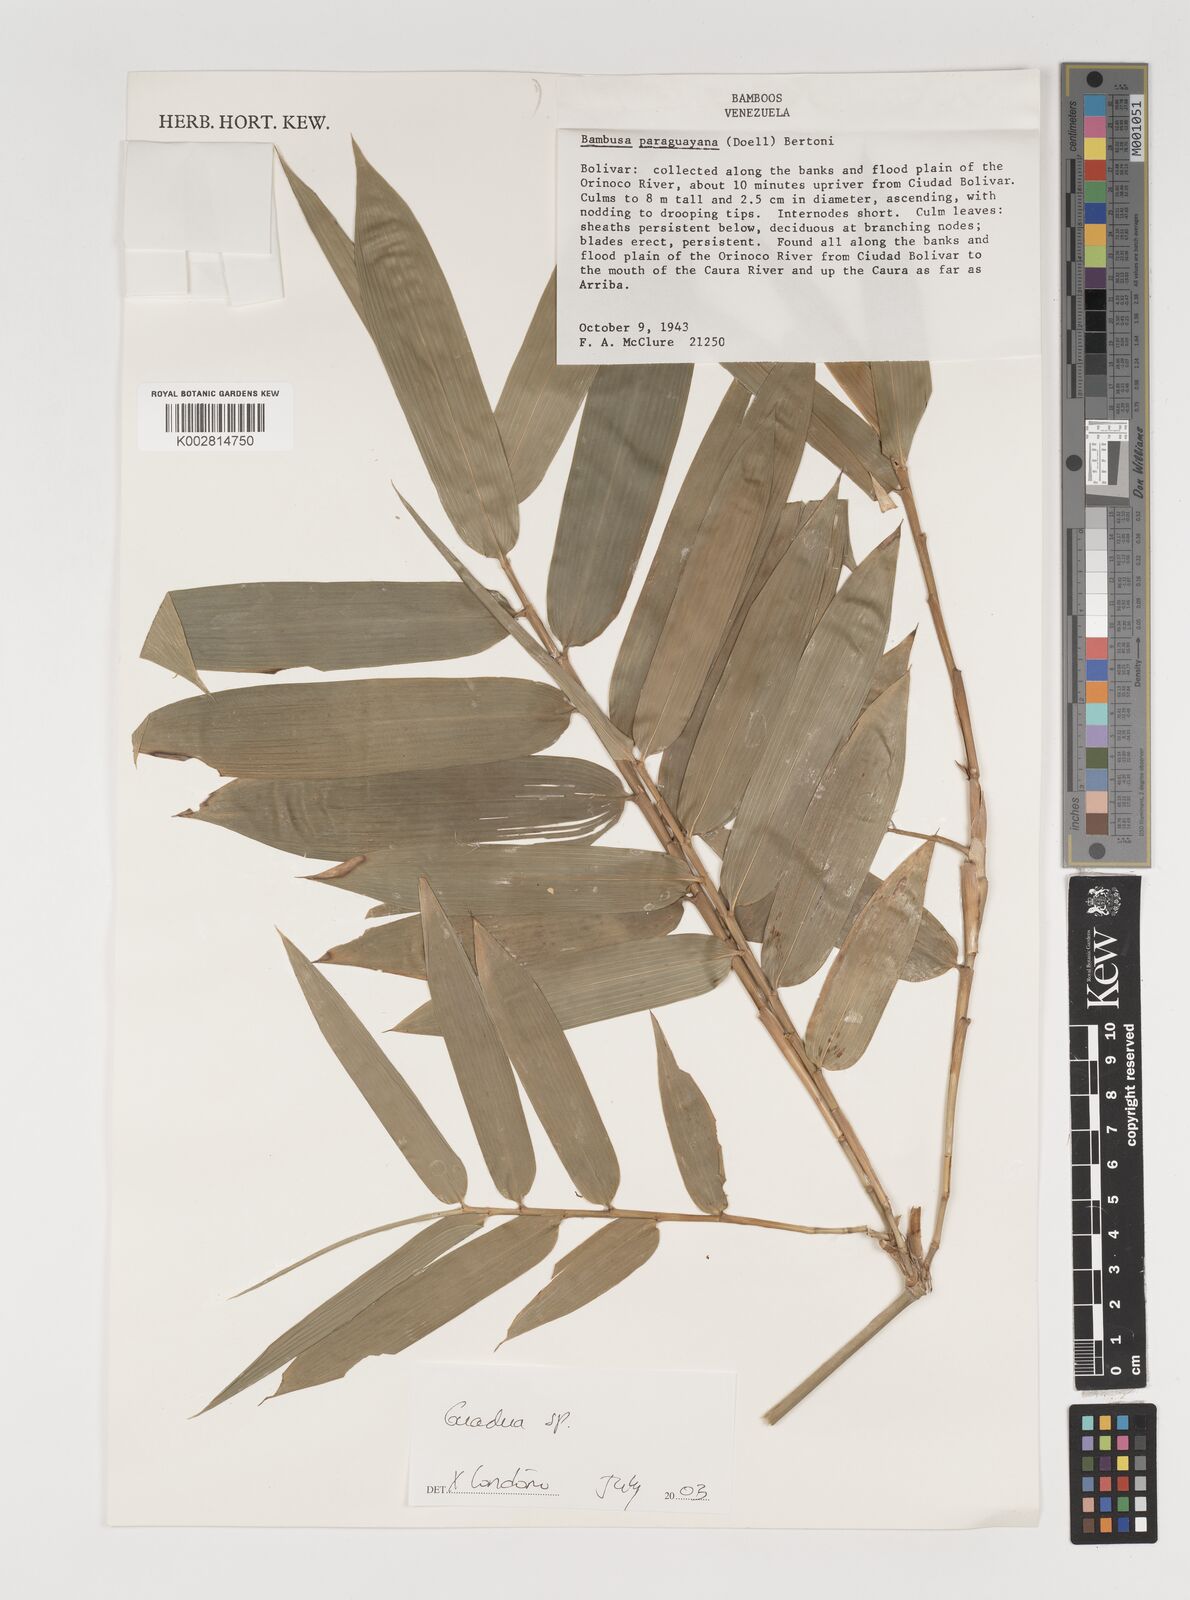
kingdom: Plantae
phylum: Tracheophyta
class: Liliopsida
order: Poales
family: Poaceae
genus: Guadua
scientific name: Guadua
